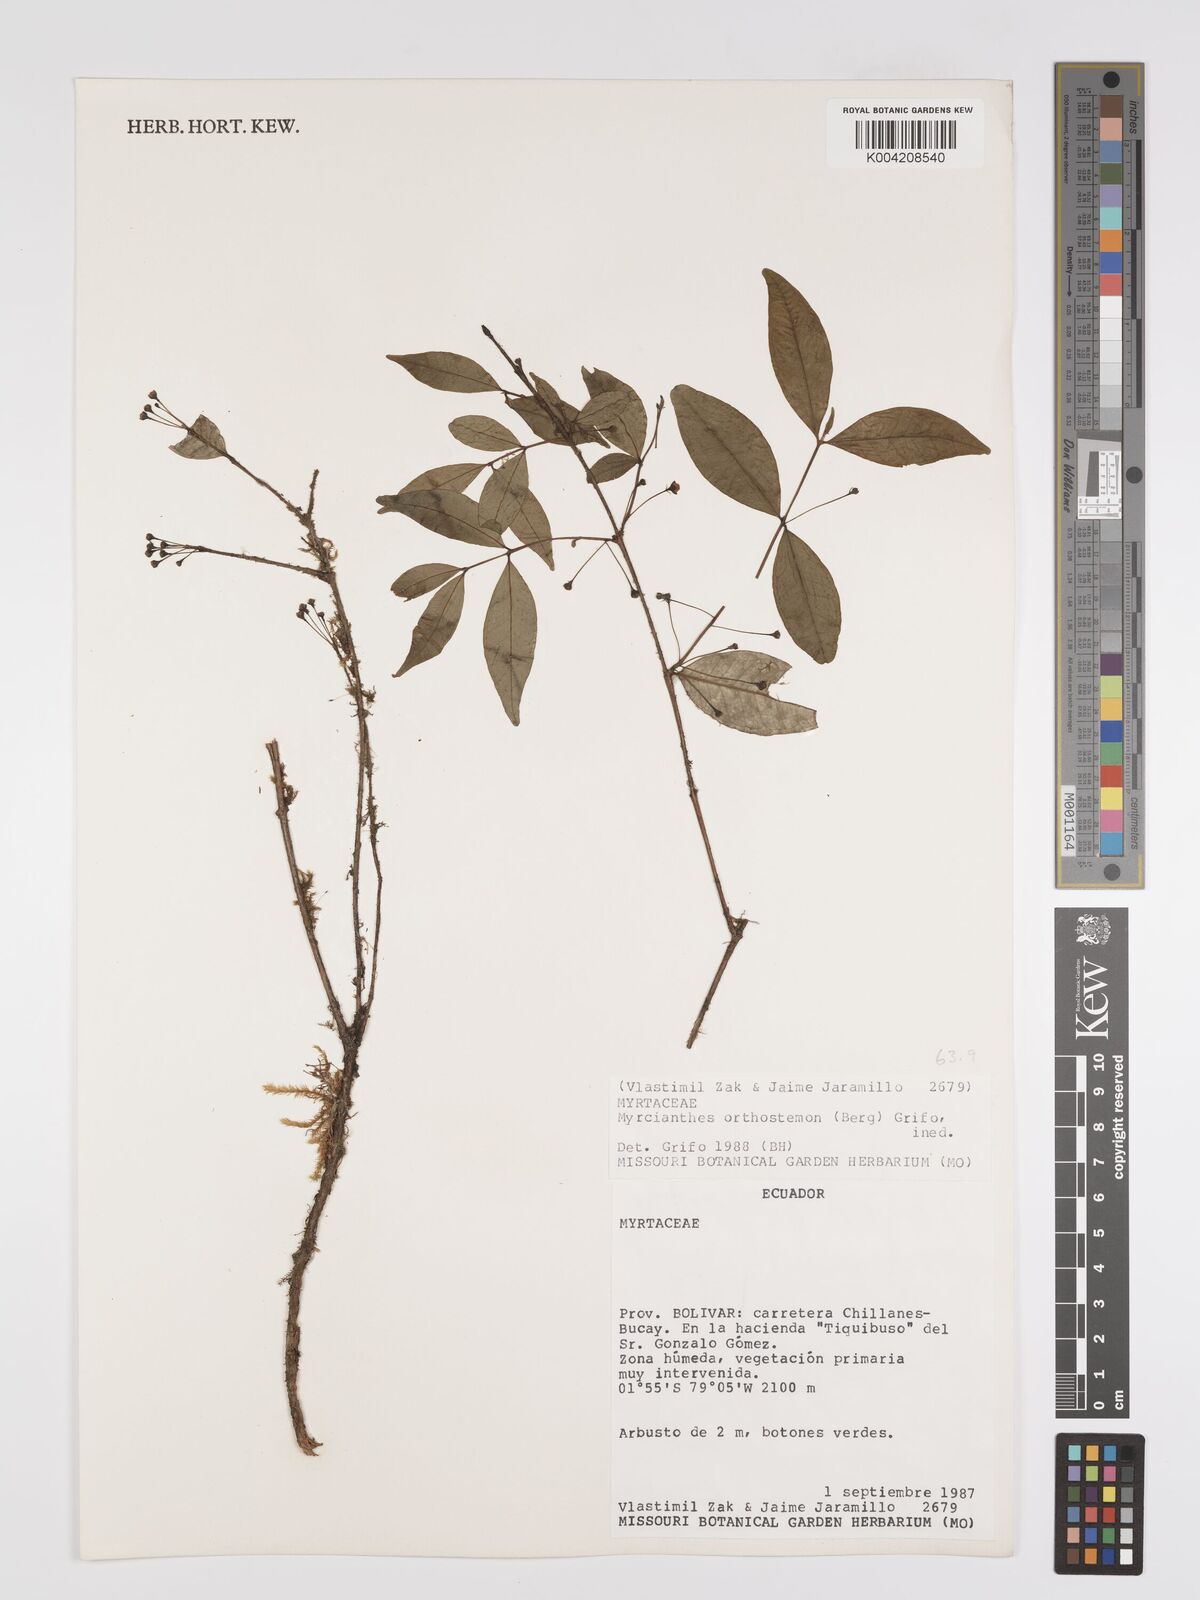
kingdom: Plantae
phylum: Tracheophyta
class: Magnoliopsida
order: Myrtales
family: Myrtaceae
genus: Myrcianthes
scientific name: Myrcianthes orthostemon
